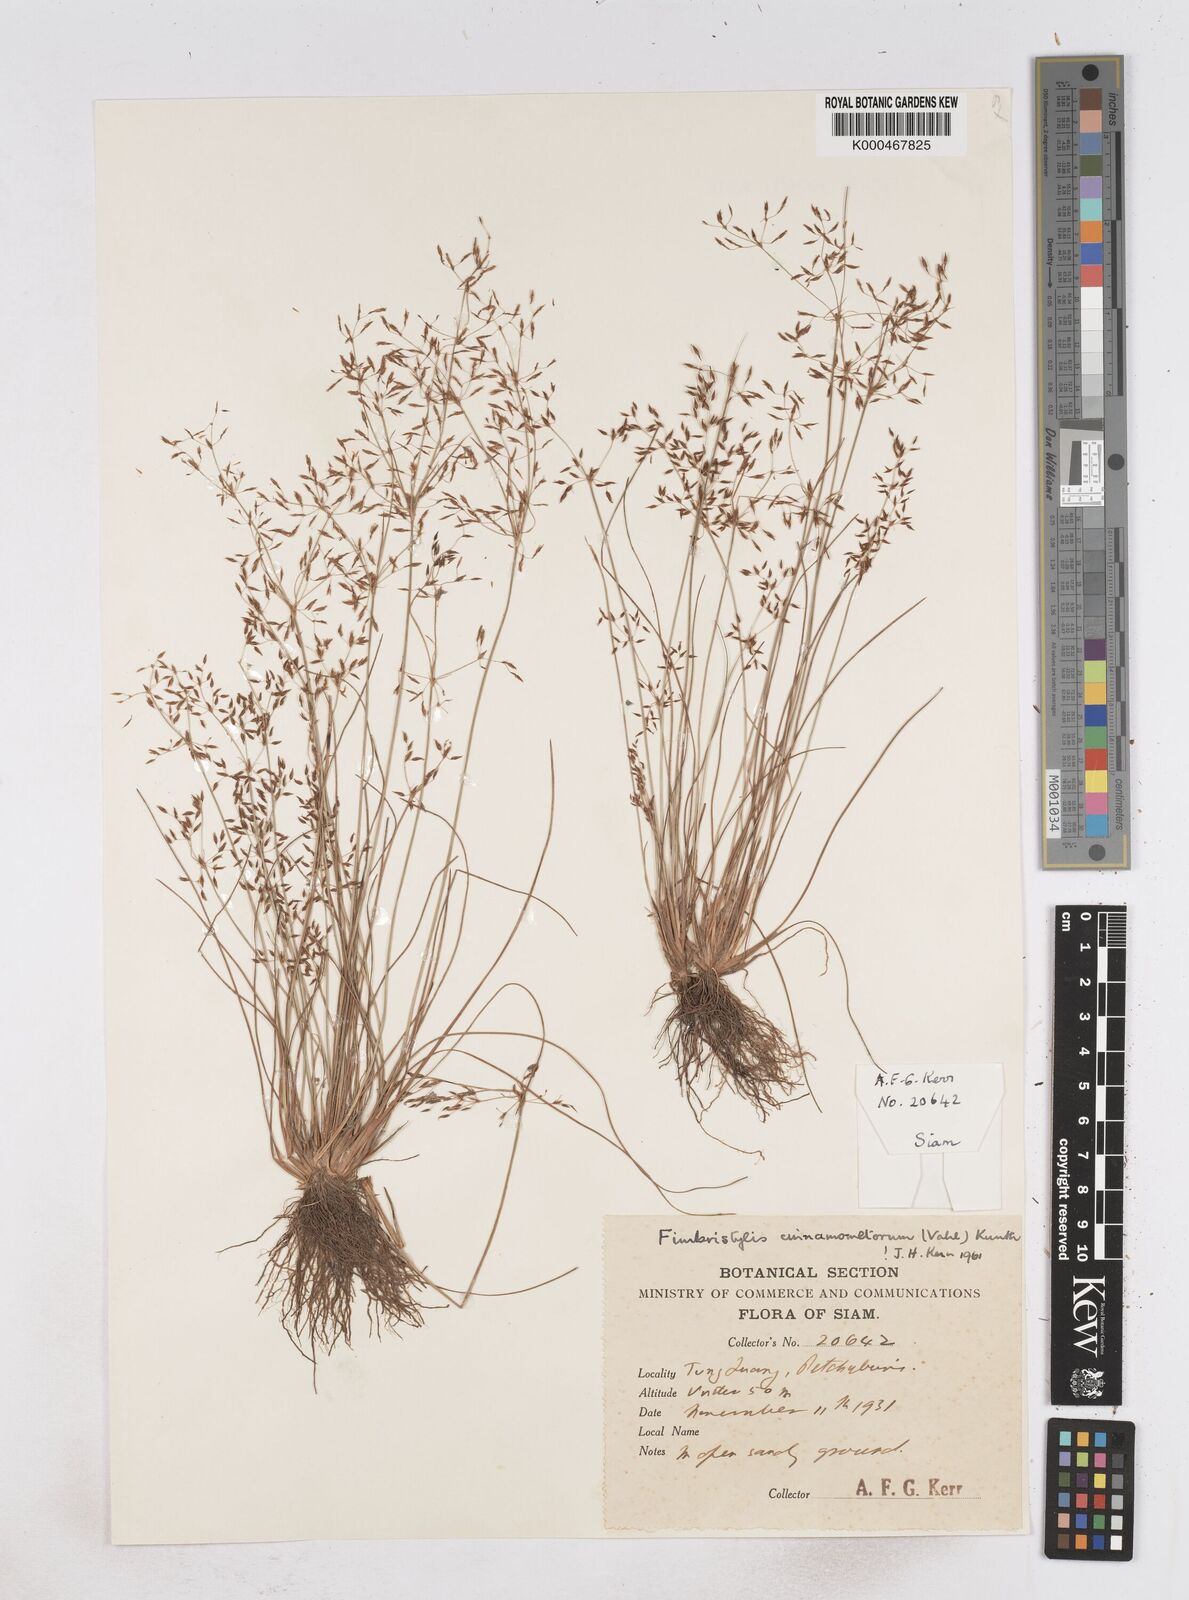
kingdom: Plantae
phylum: Tracheophyta
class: Liliopsida
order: Poales
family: Cyperaceae
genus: Fimbristylis
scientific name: Fimbristylis cinnamometorum
